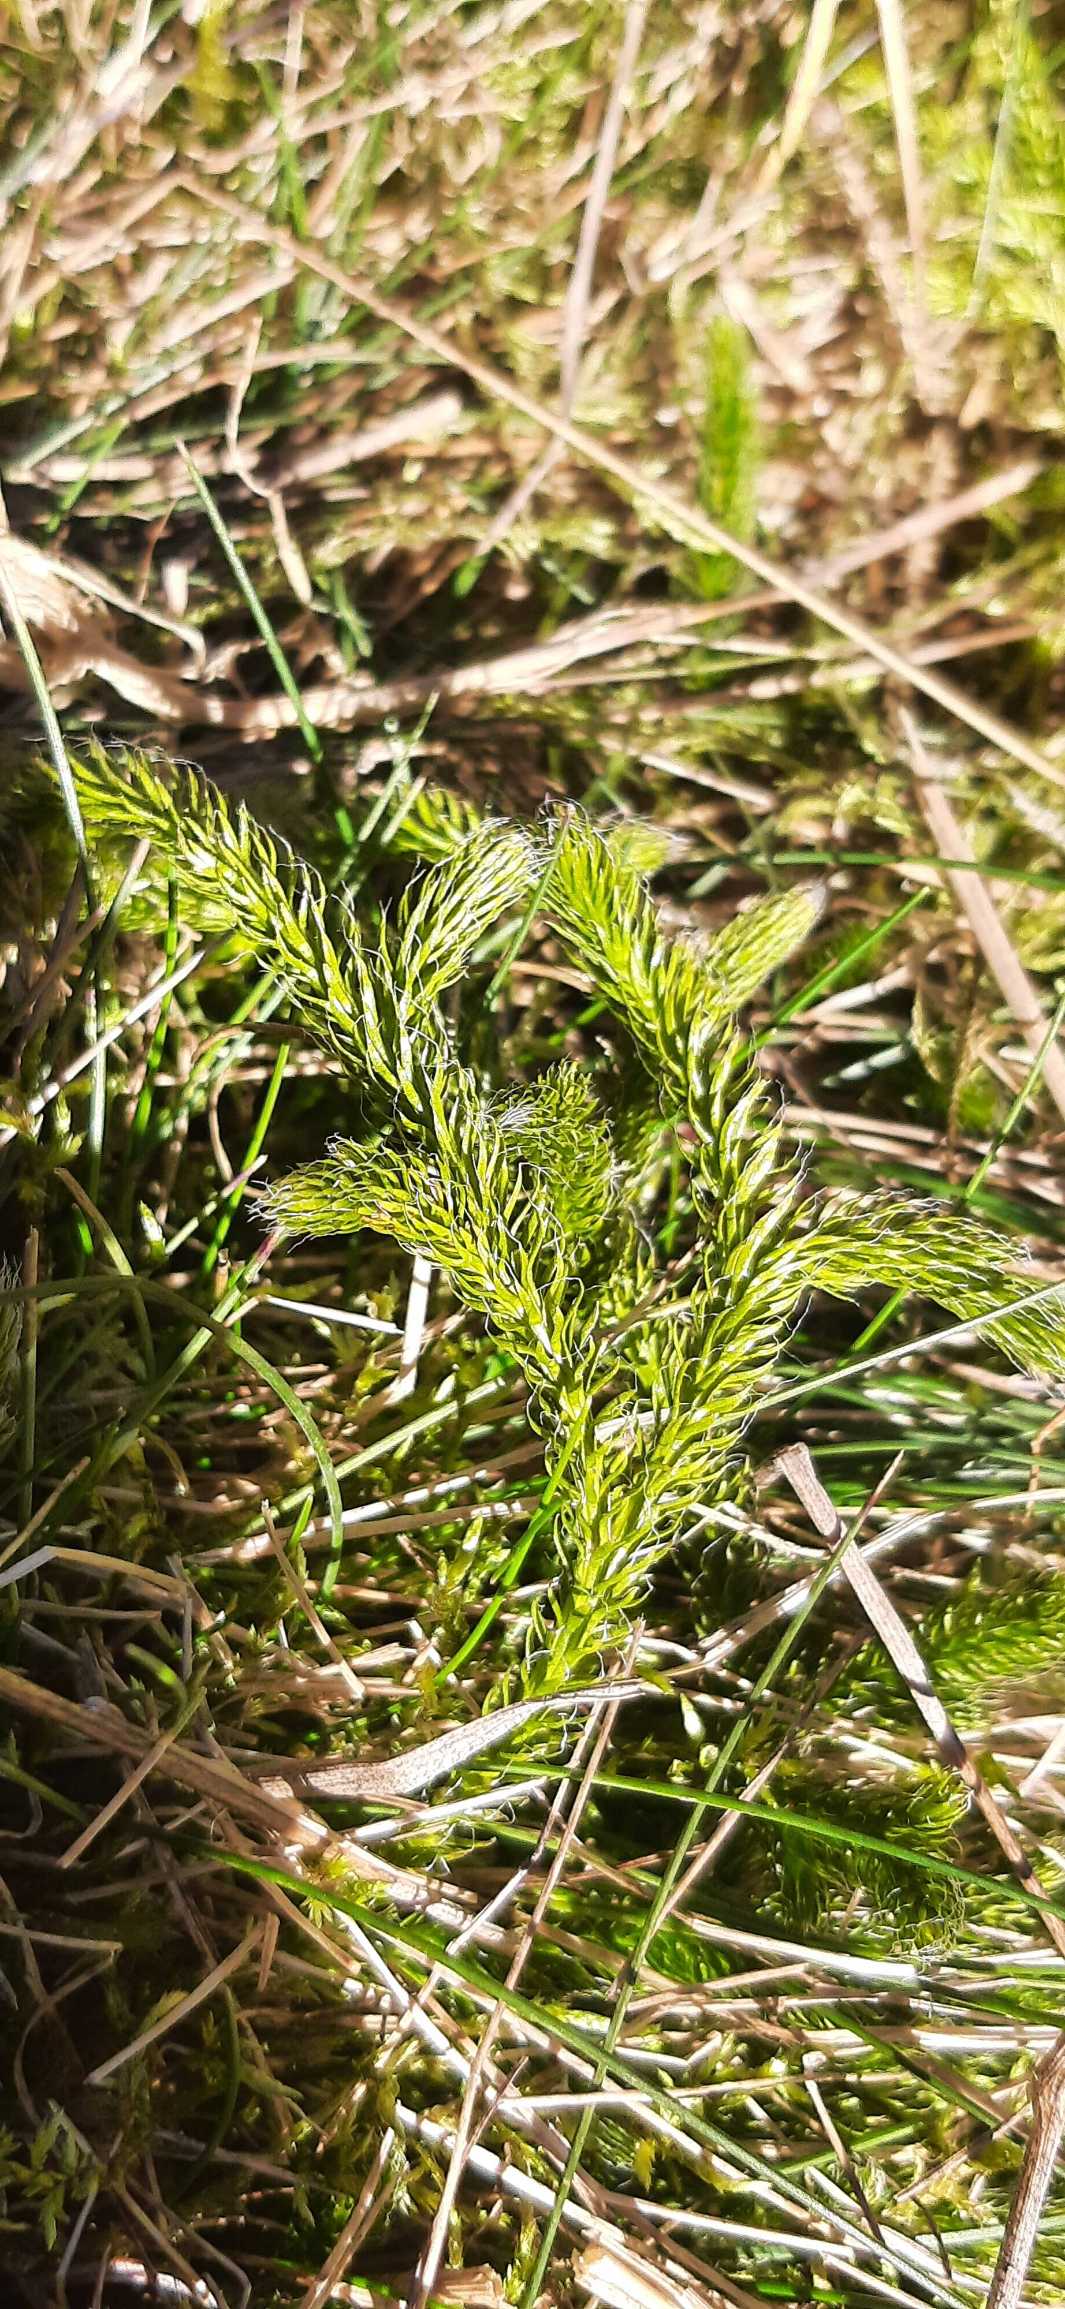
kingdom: Plantae
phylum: Tracheophyta
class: Lycopodiopsida
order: Lycopodiales
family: Lycopodiaceae
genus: Lycopodium
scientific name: Lycopodium clavatum
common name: Almindelig ulvefod
